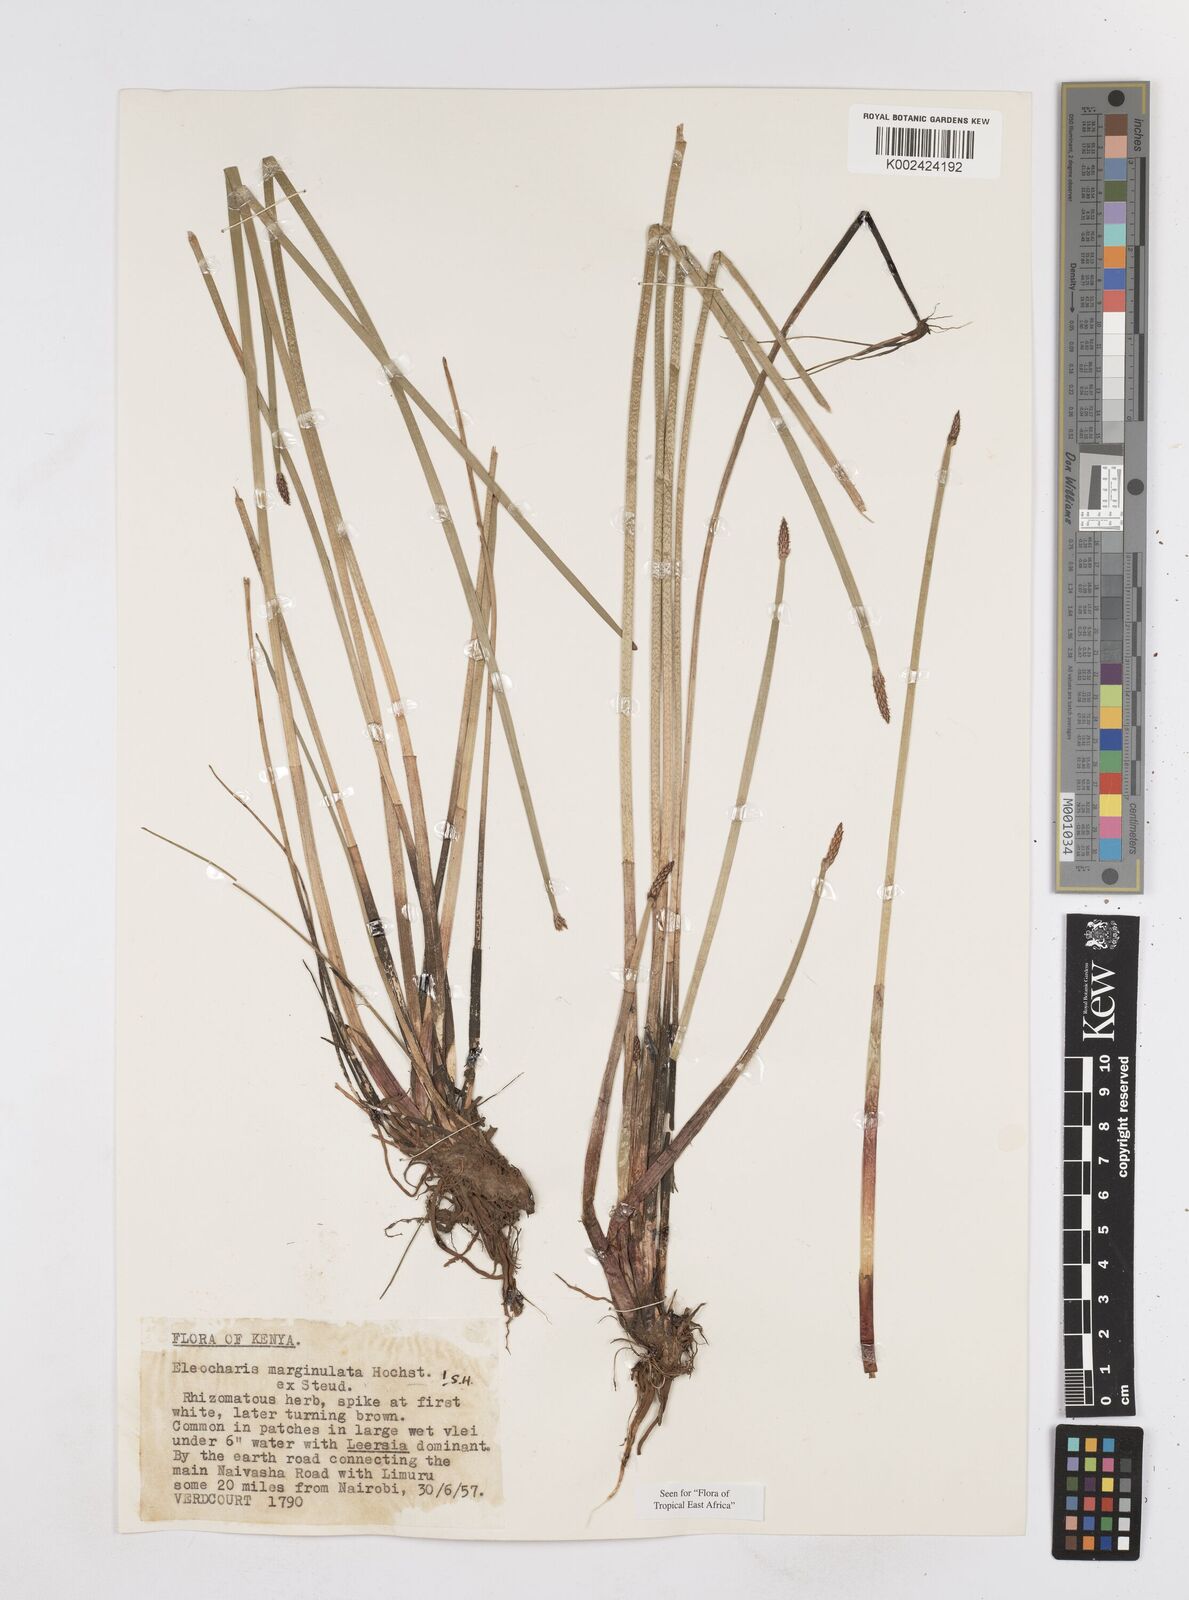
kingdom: Plantae
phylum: Tracheophyta
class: Liliopsida
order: Poales
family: Cyperaceae
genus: Eleocharis
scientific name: Eleocharis marginulata
